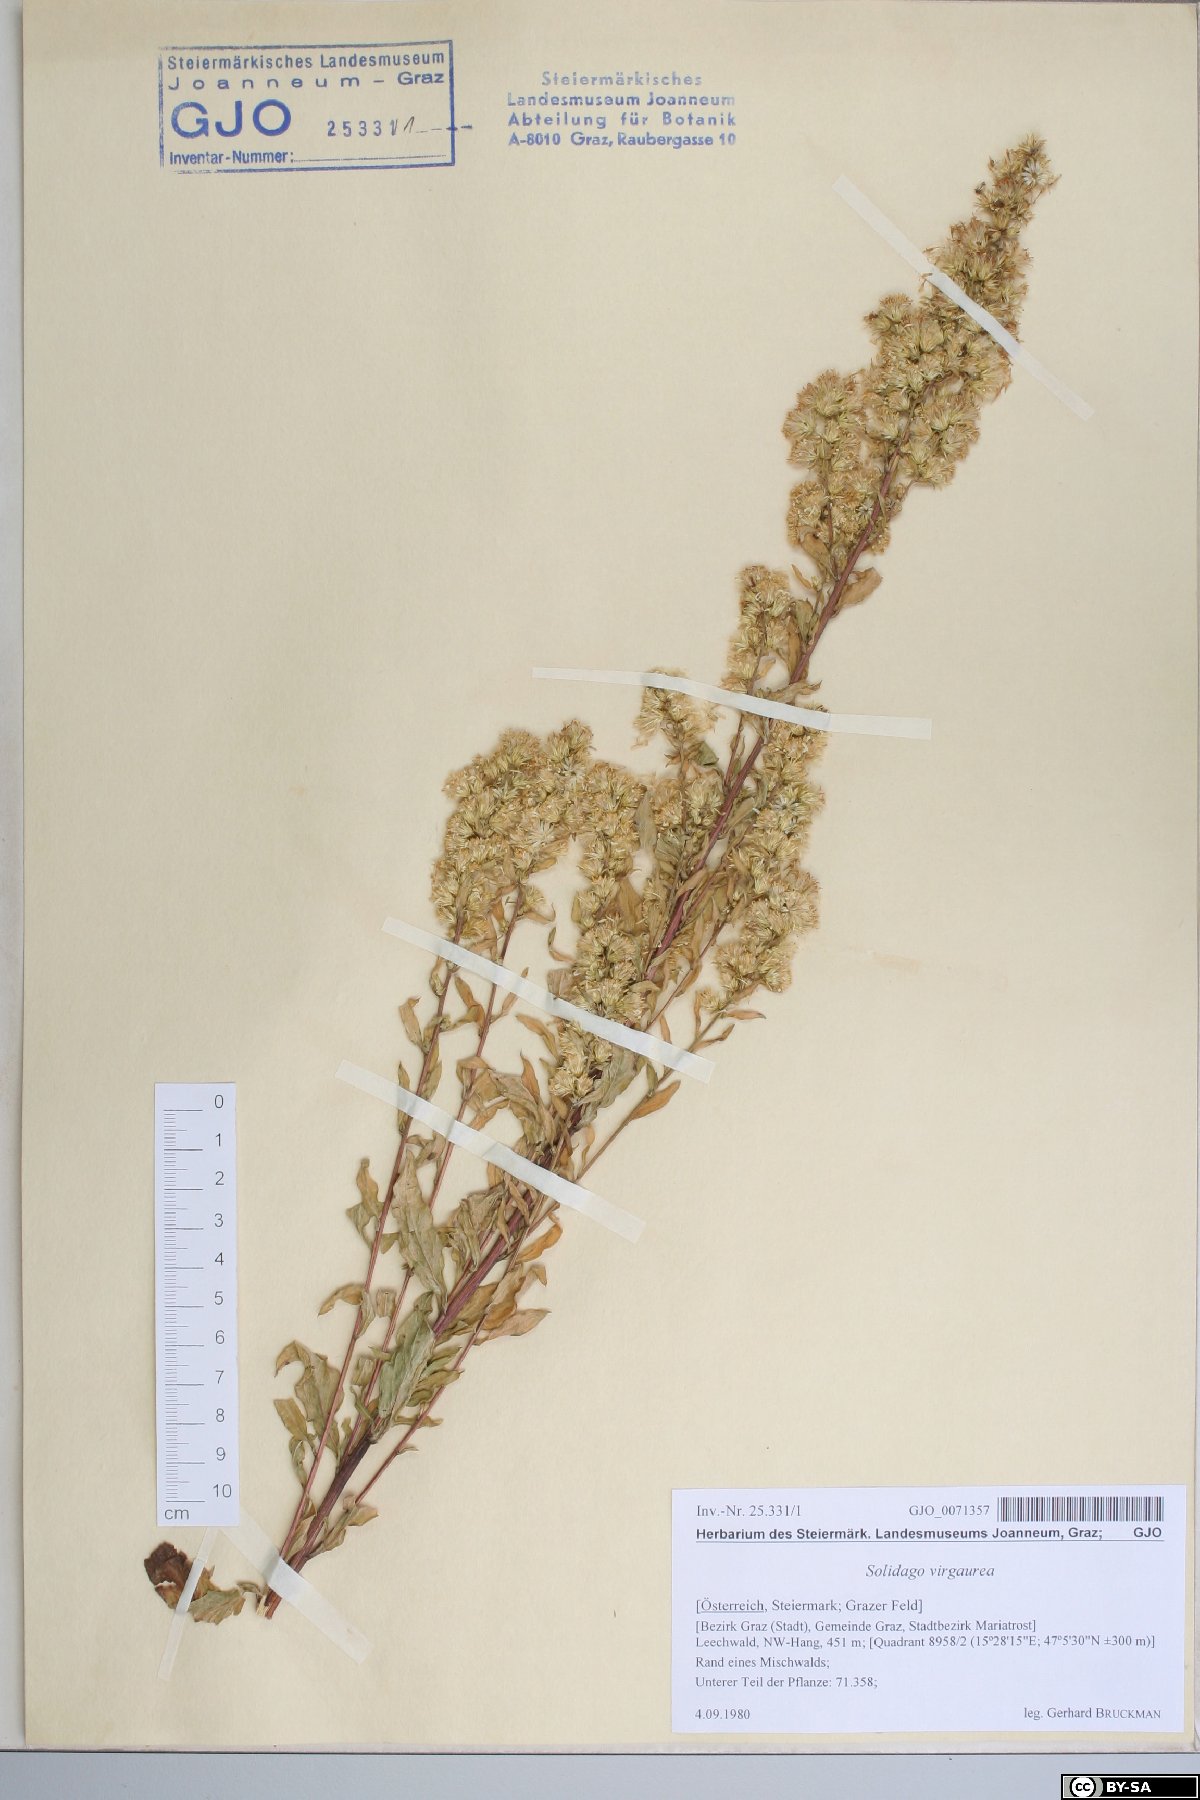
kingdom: Plantae
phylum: Tracheophyta
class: Magnoliopsida
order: Asterales
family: Asteraceae
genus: Solidago
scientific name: Solidago virgaurea
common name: Goldenrod
